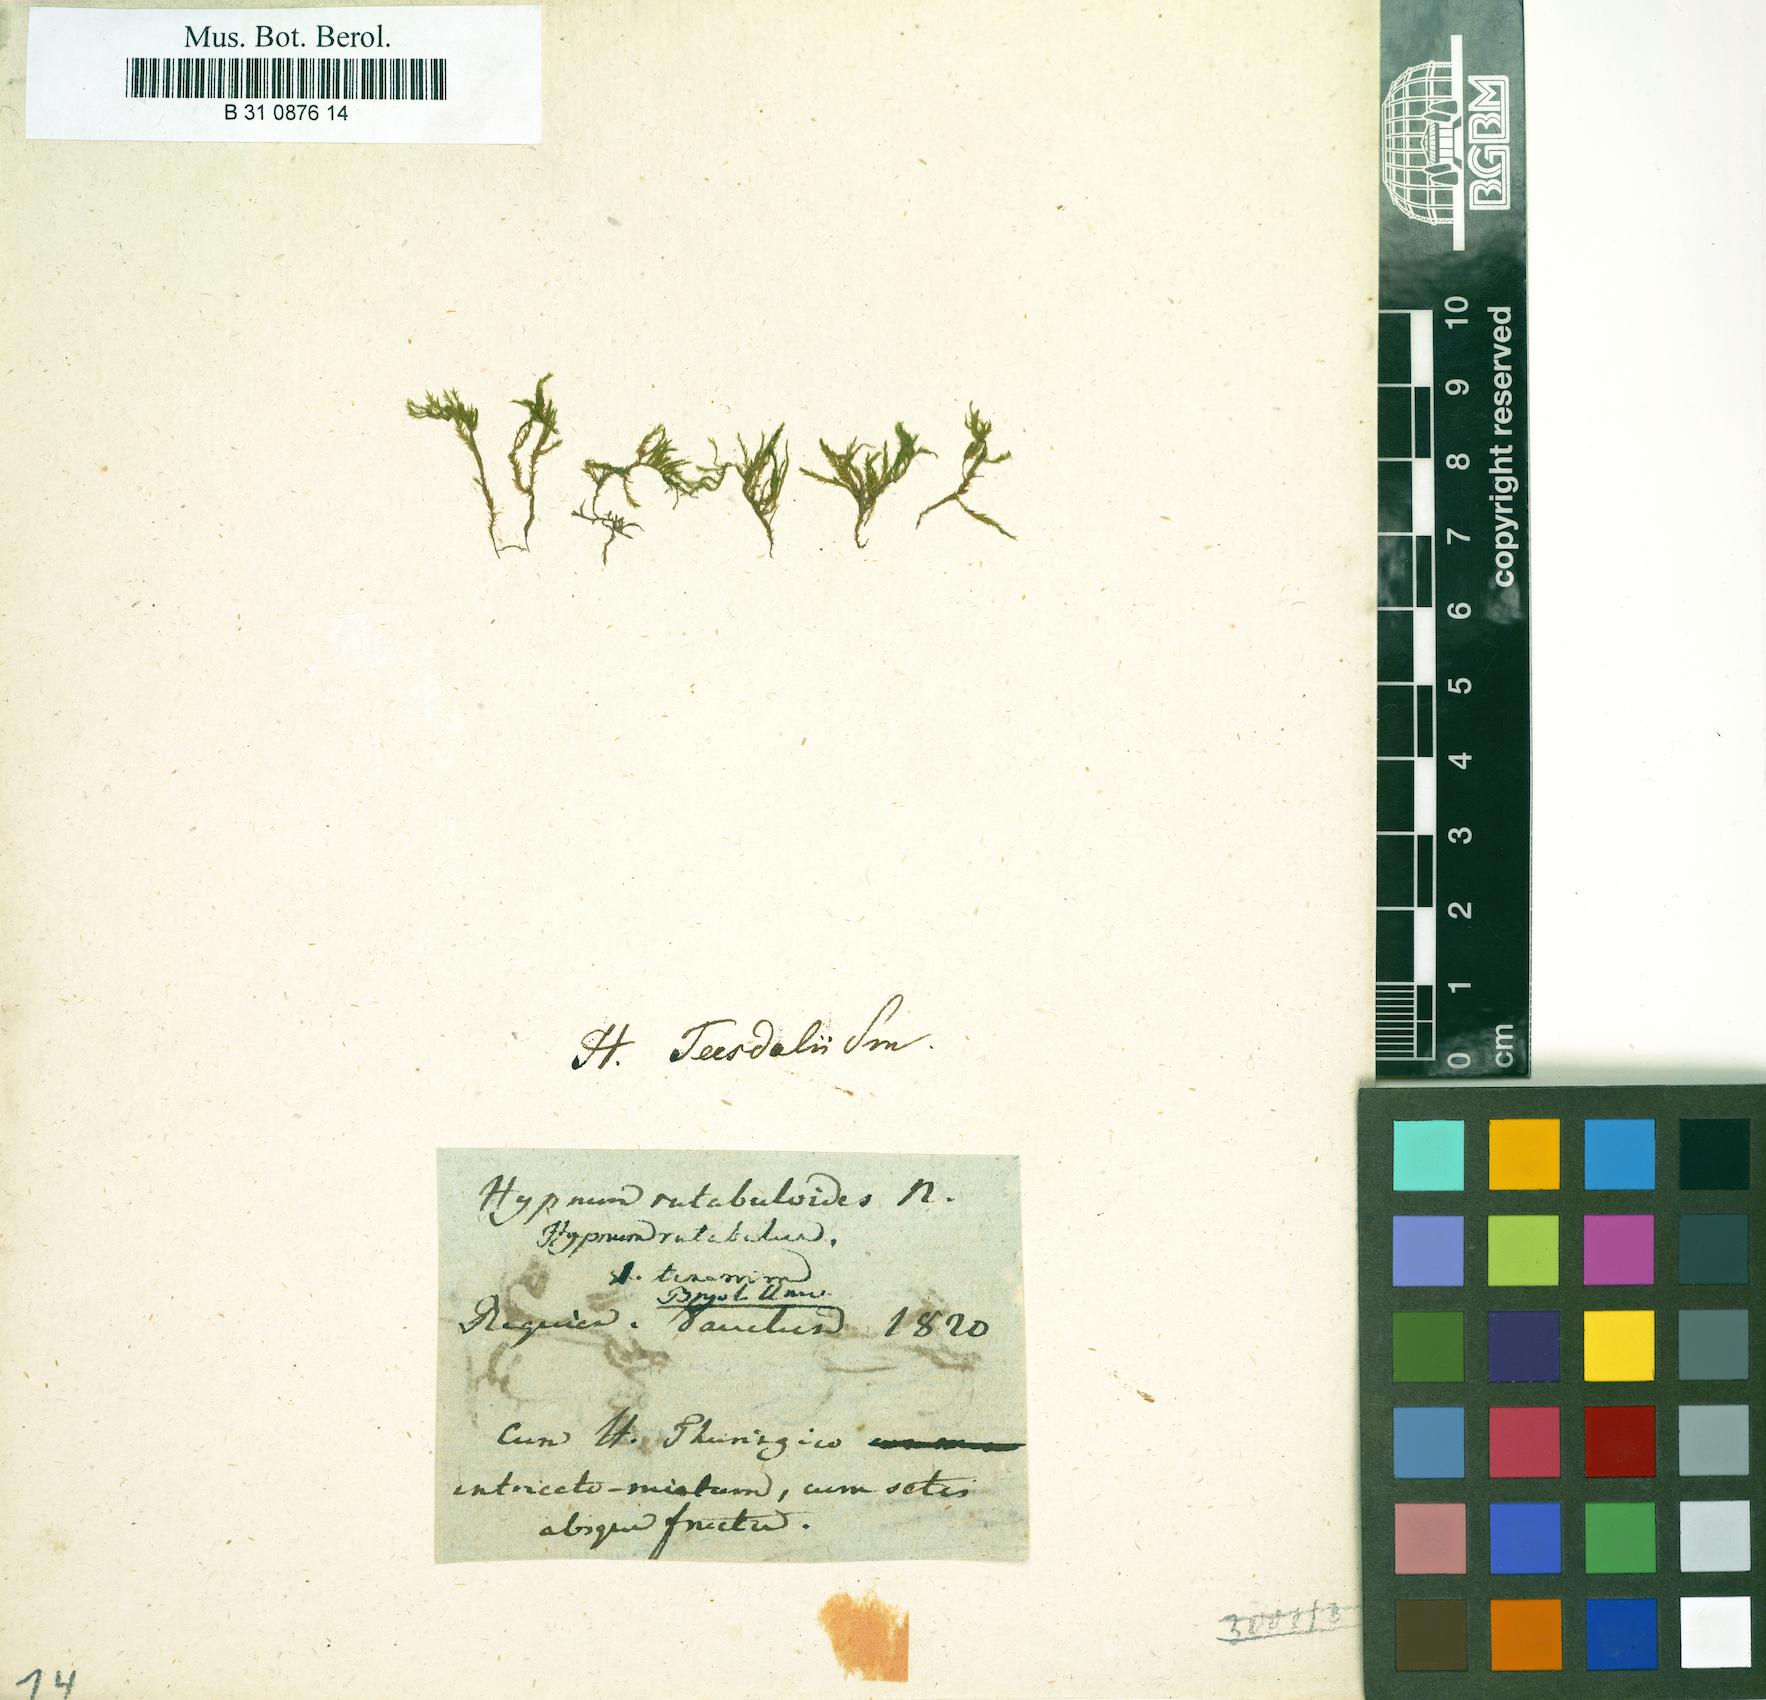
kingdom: Plantae
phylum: Bryophyta
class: Bryopsida
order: Hypnales
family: Brachytheciaceae
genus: Brachythecium
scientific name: Brachythecium rutabulum
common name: Rough-stalked feather-moss
